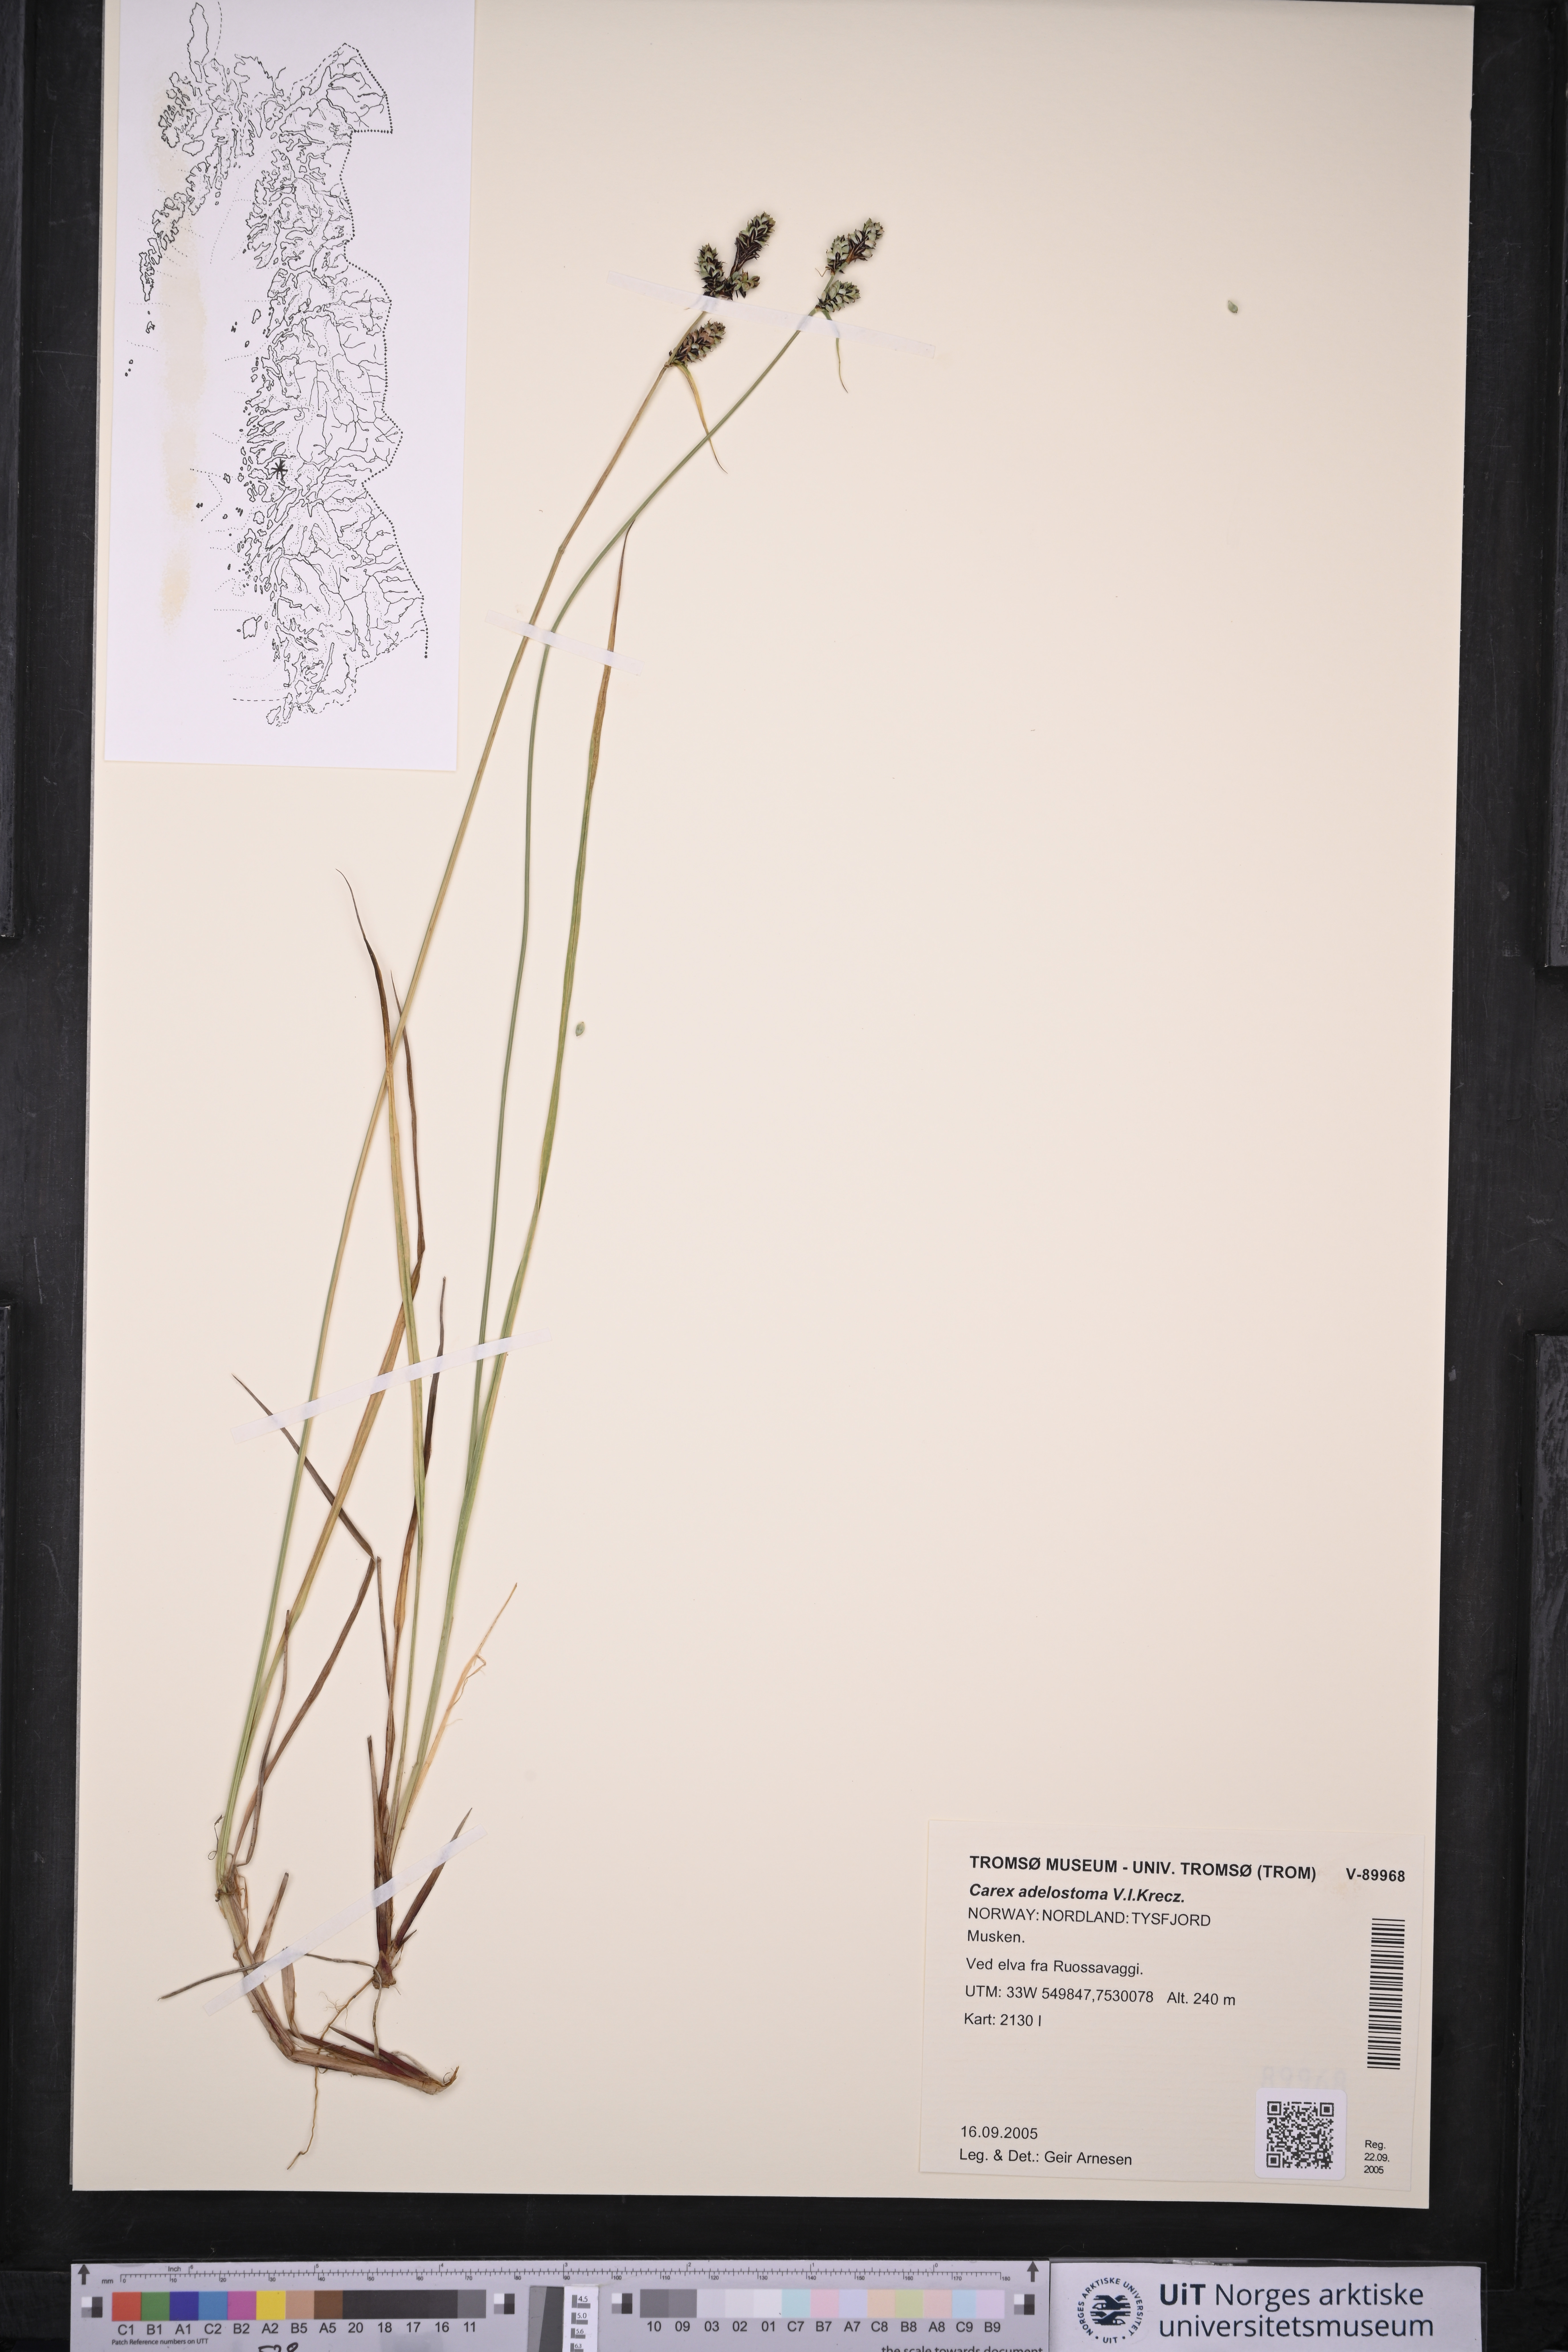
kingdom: Plantae
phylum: Tracheophyta
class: Liliopsida
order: Poales
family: Cyperaceae
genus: Carex
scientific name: Carex adelostoma
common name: Circumpolar sedge
